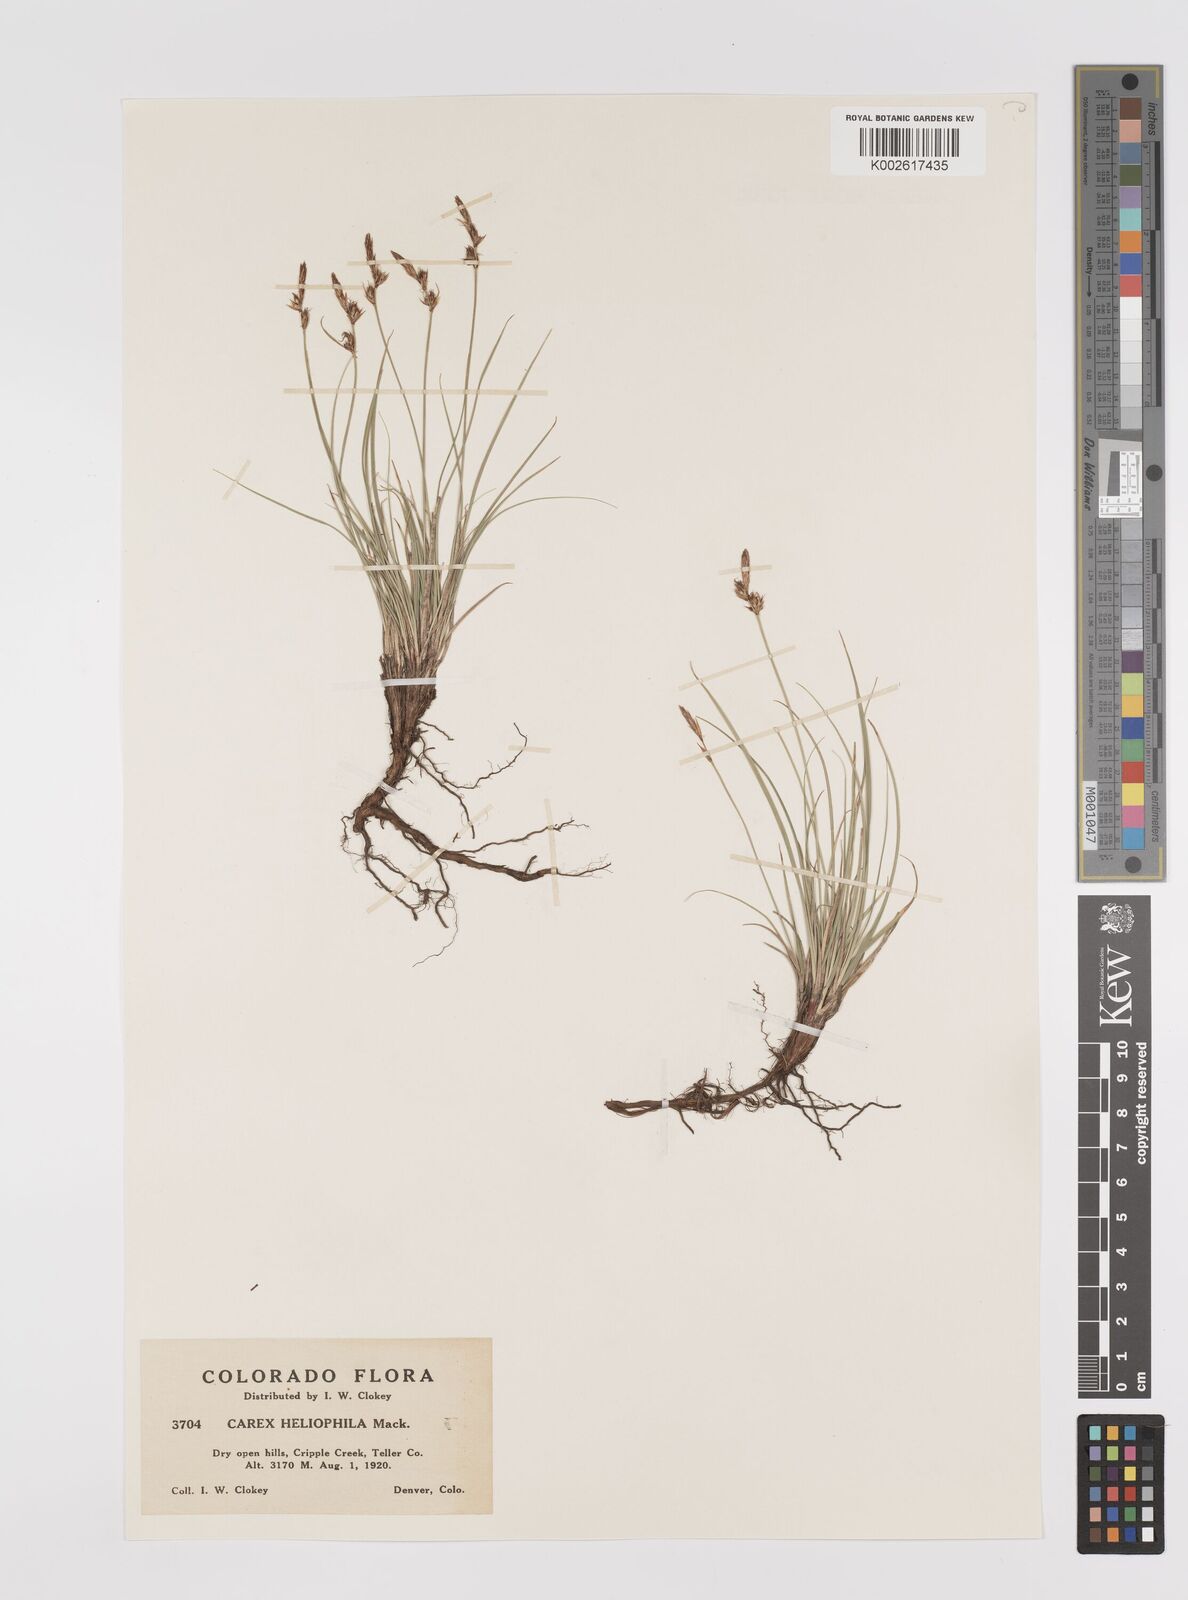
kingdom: Plantae
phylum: Tracheophyta
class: Liliopsida
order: Poales
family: Cyperaceae
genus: Carex
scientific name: Carex inops
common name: Long-stolon sedge
